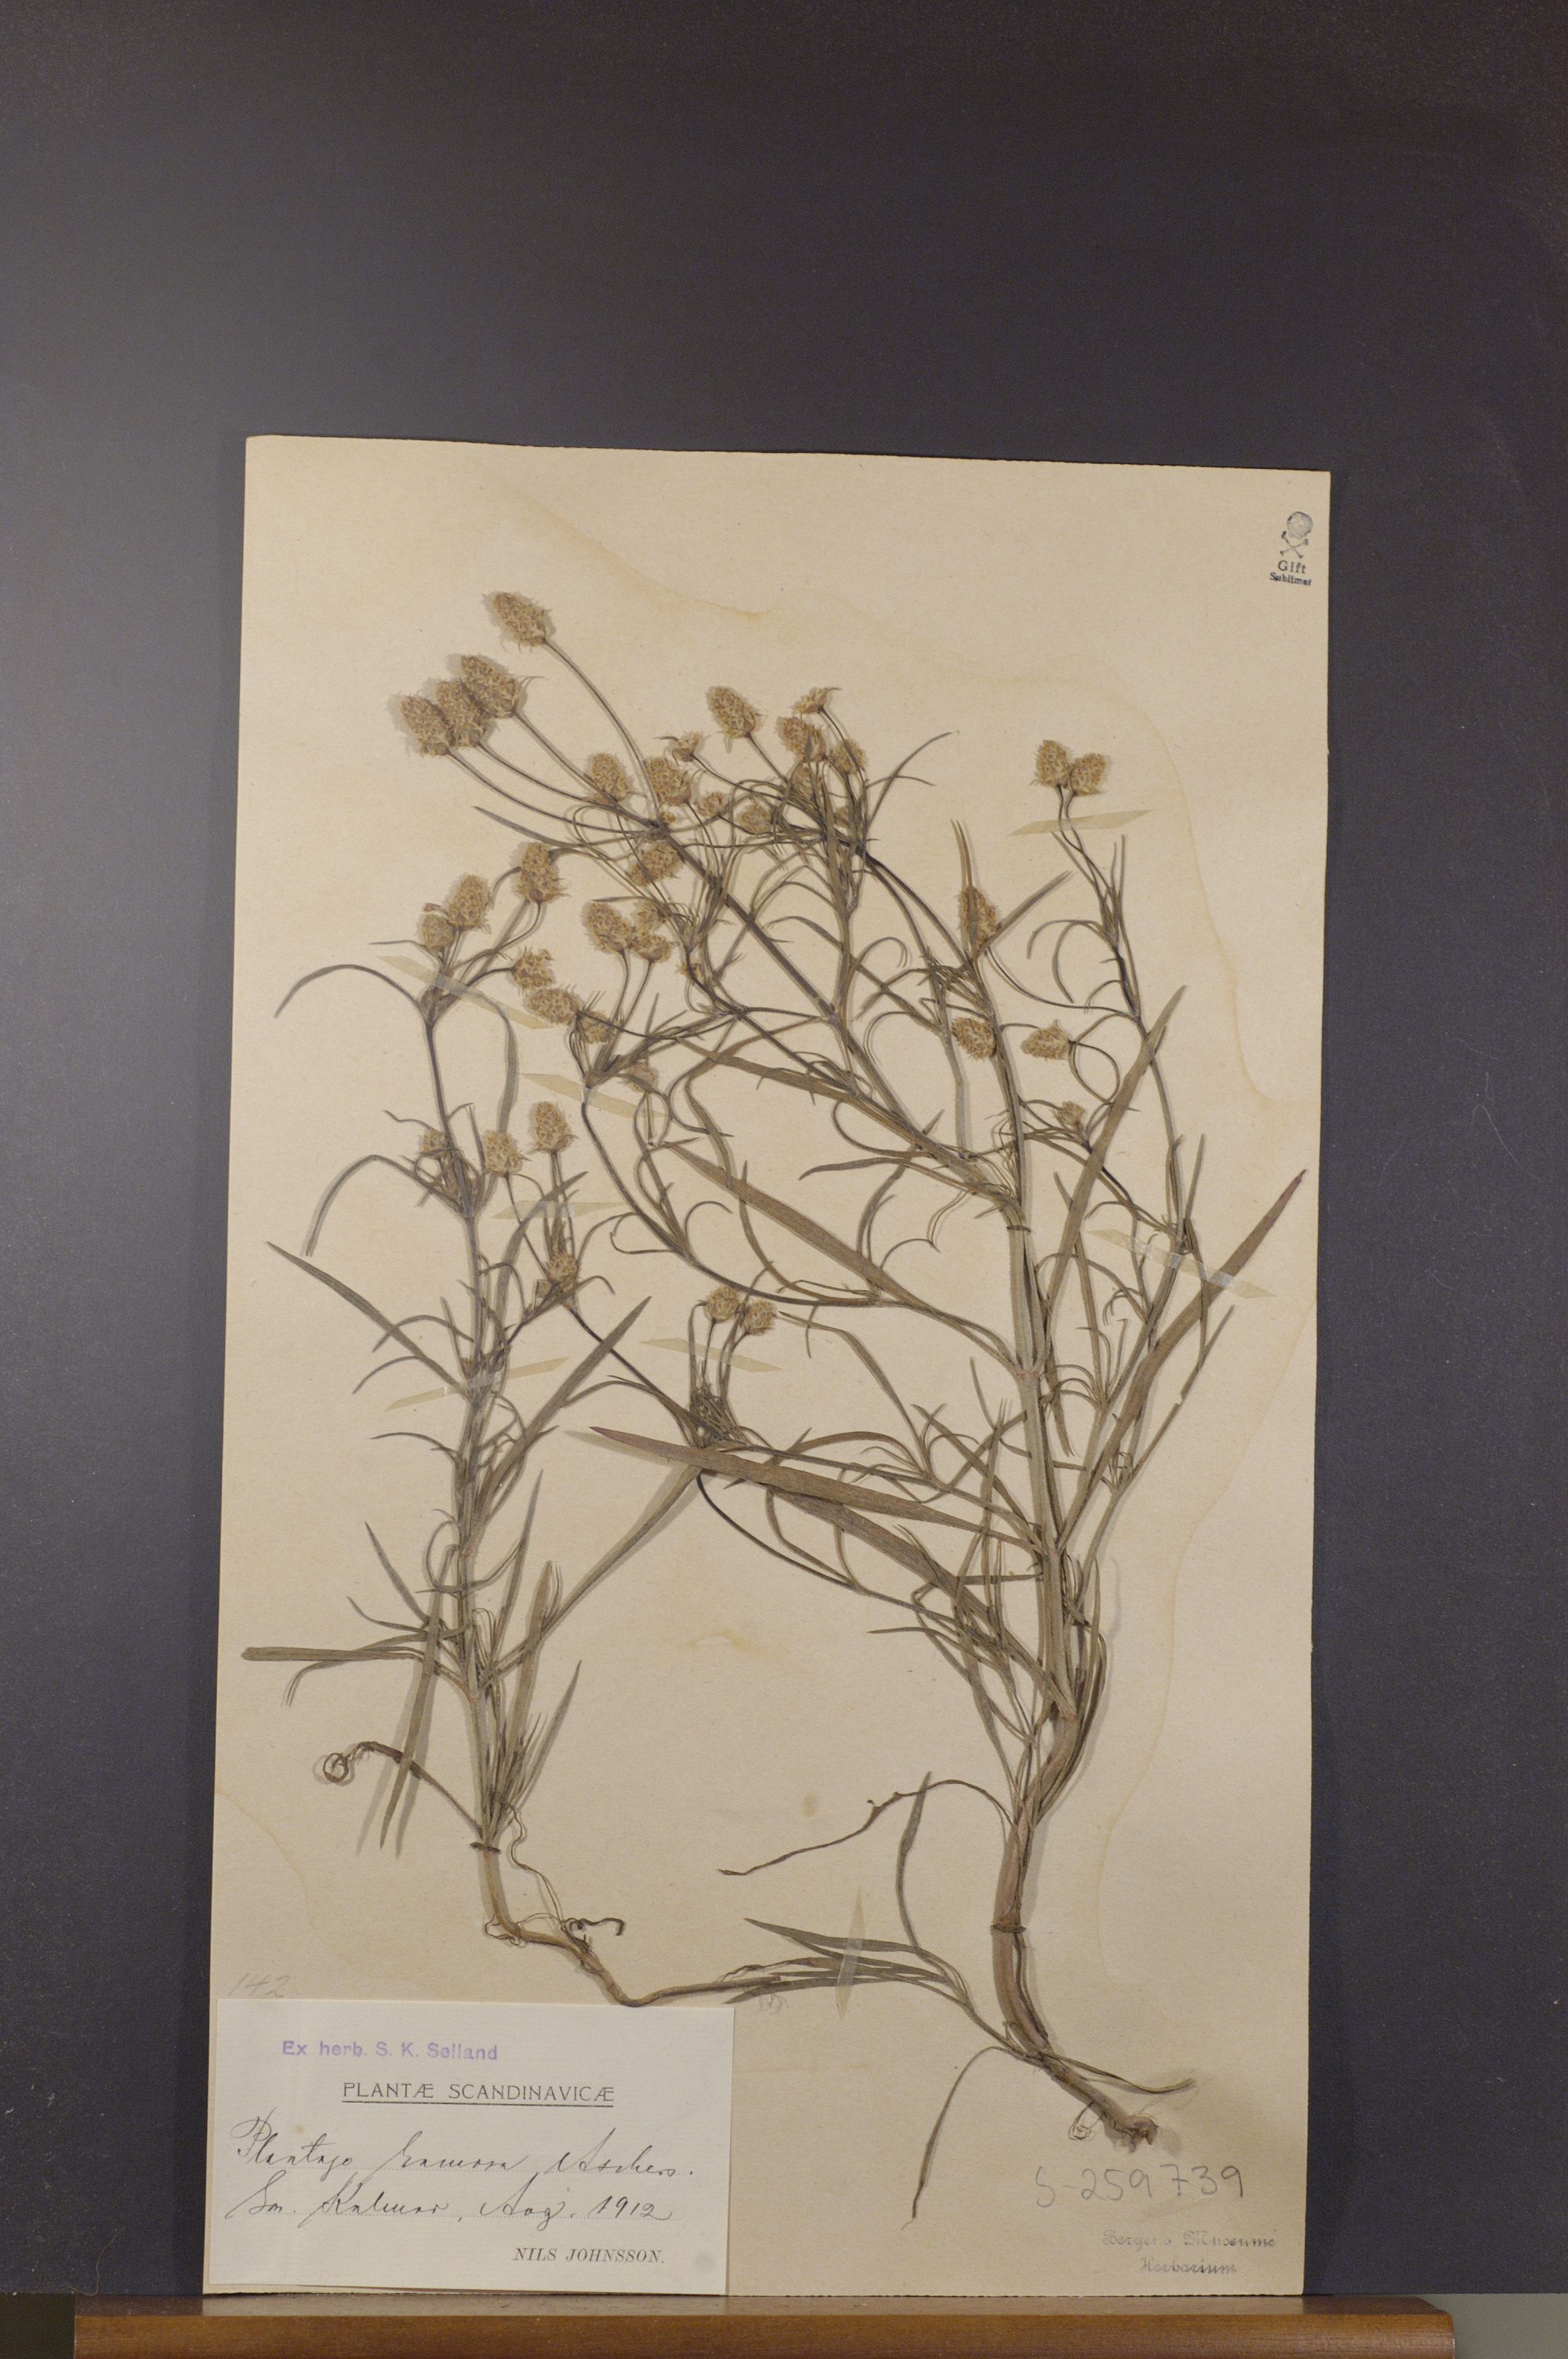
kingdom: Plantae
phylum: Tracheophyta
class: Magnoliopsida
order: Lamiales
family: Plantaginaceae
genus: Plantago
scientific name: Plantago arenaria
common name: Branched plantain
